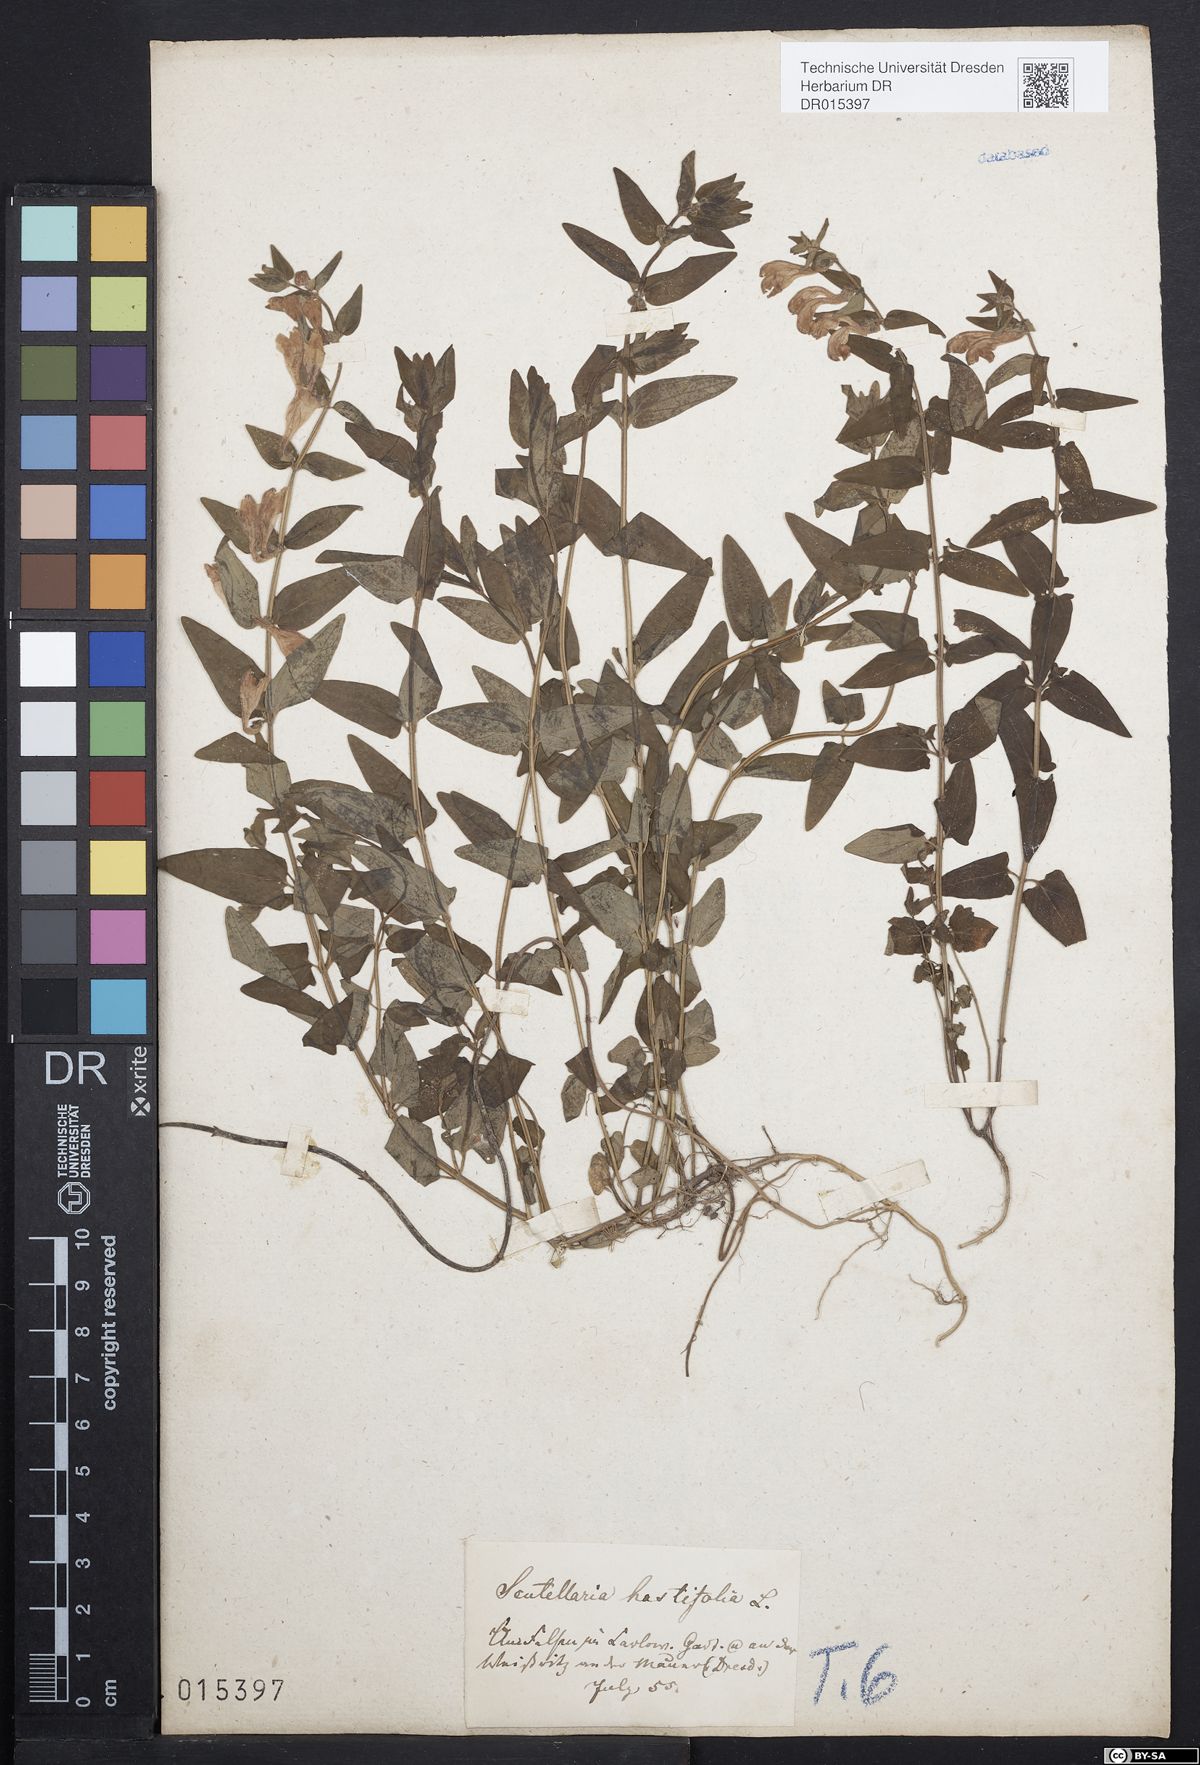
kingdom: Plantae
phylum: Tracheophyta
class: Magnoliopsida
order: Lamiales
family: Lamiaceae
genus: Scutellaria
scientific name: Scutellaria hastifolia
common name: Norfolk skullcap
